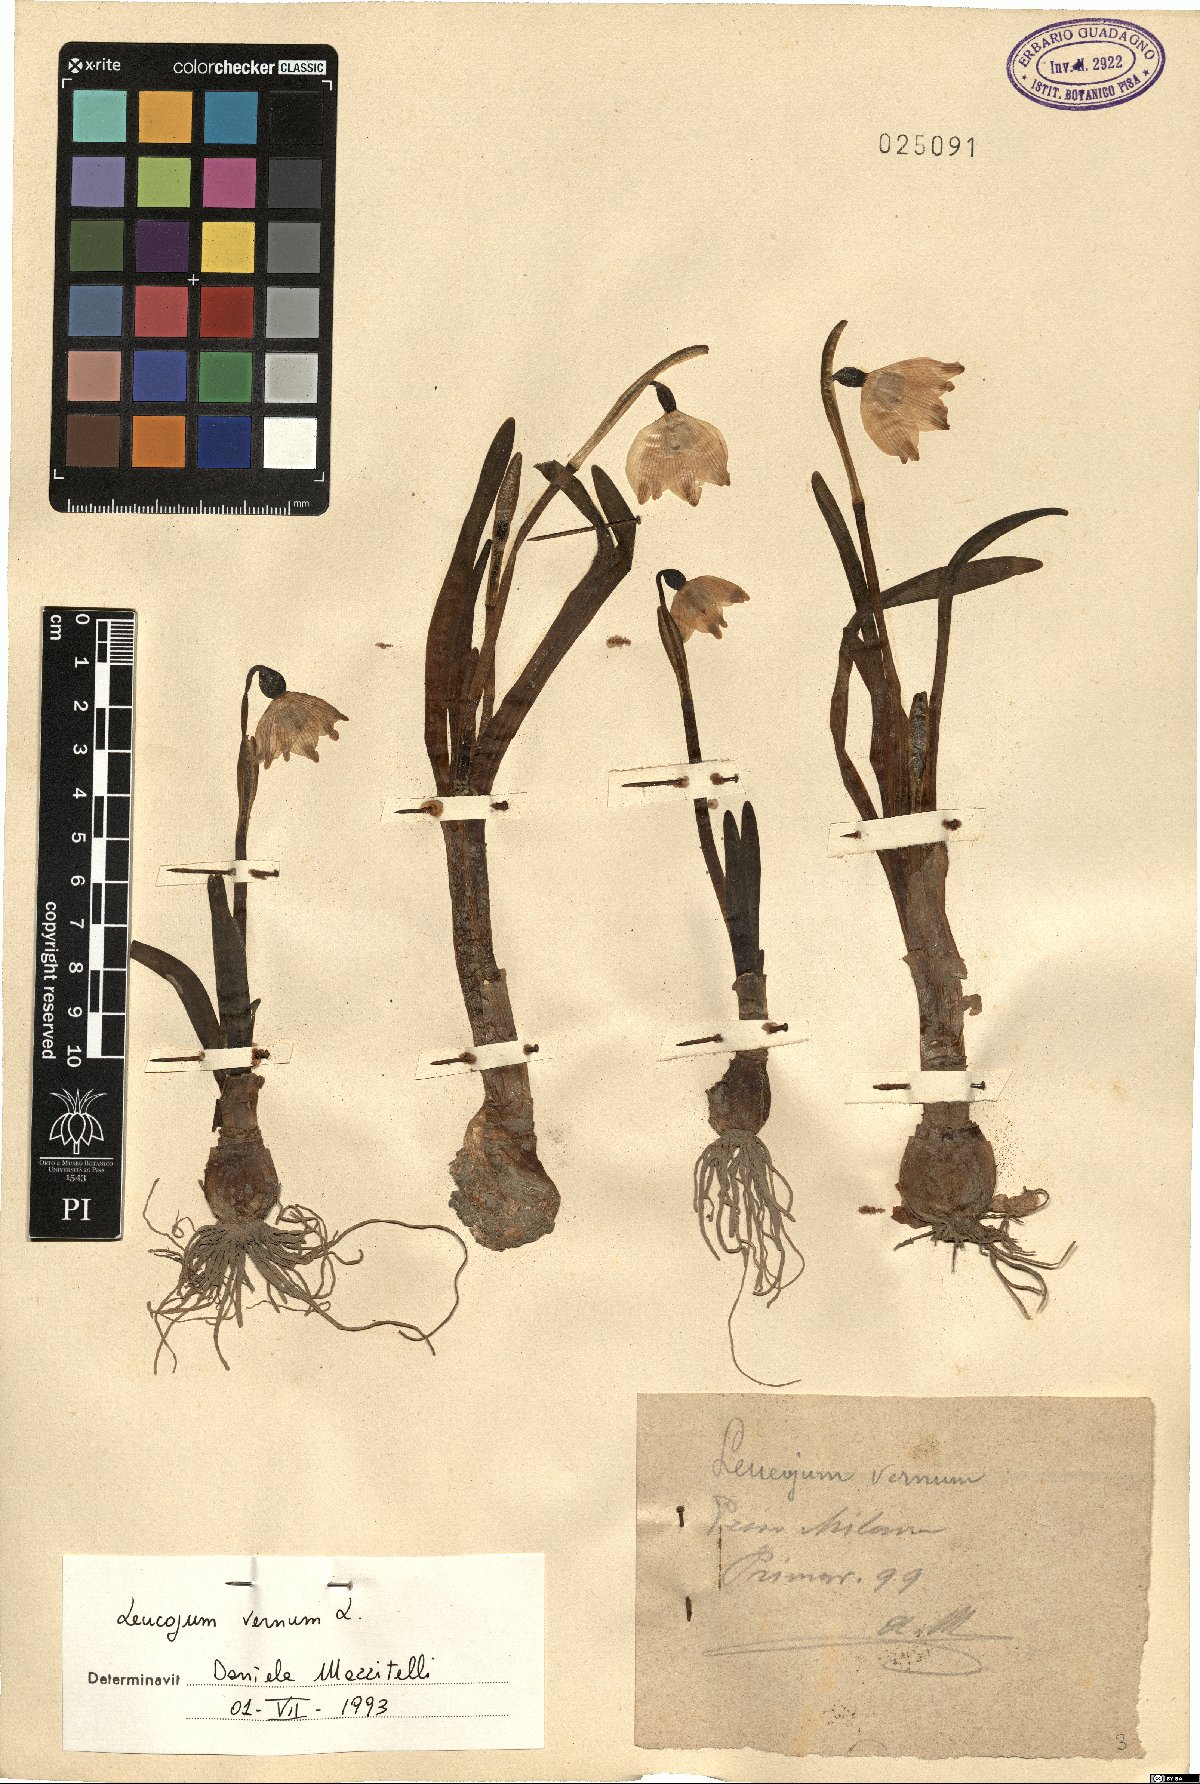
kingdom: Plantae
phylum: Tracheophyta
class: Liliopsida
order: Asparagales
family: Amaryllidaceae
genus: Leucojum
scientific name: Leucojum vernum
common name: Spring snowflake
